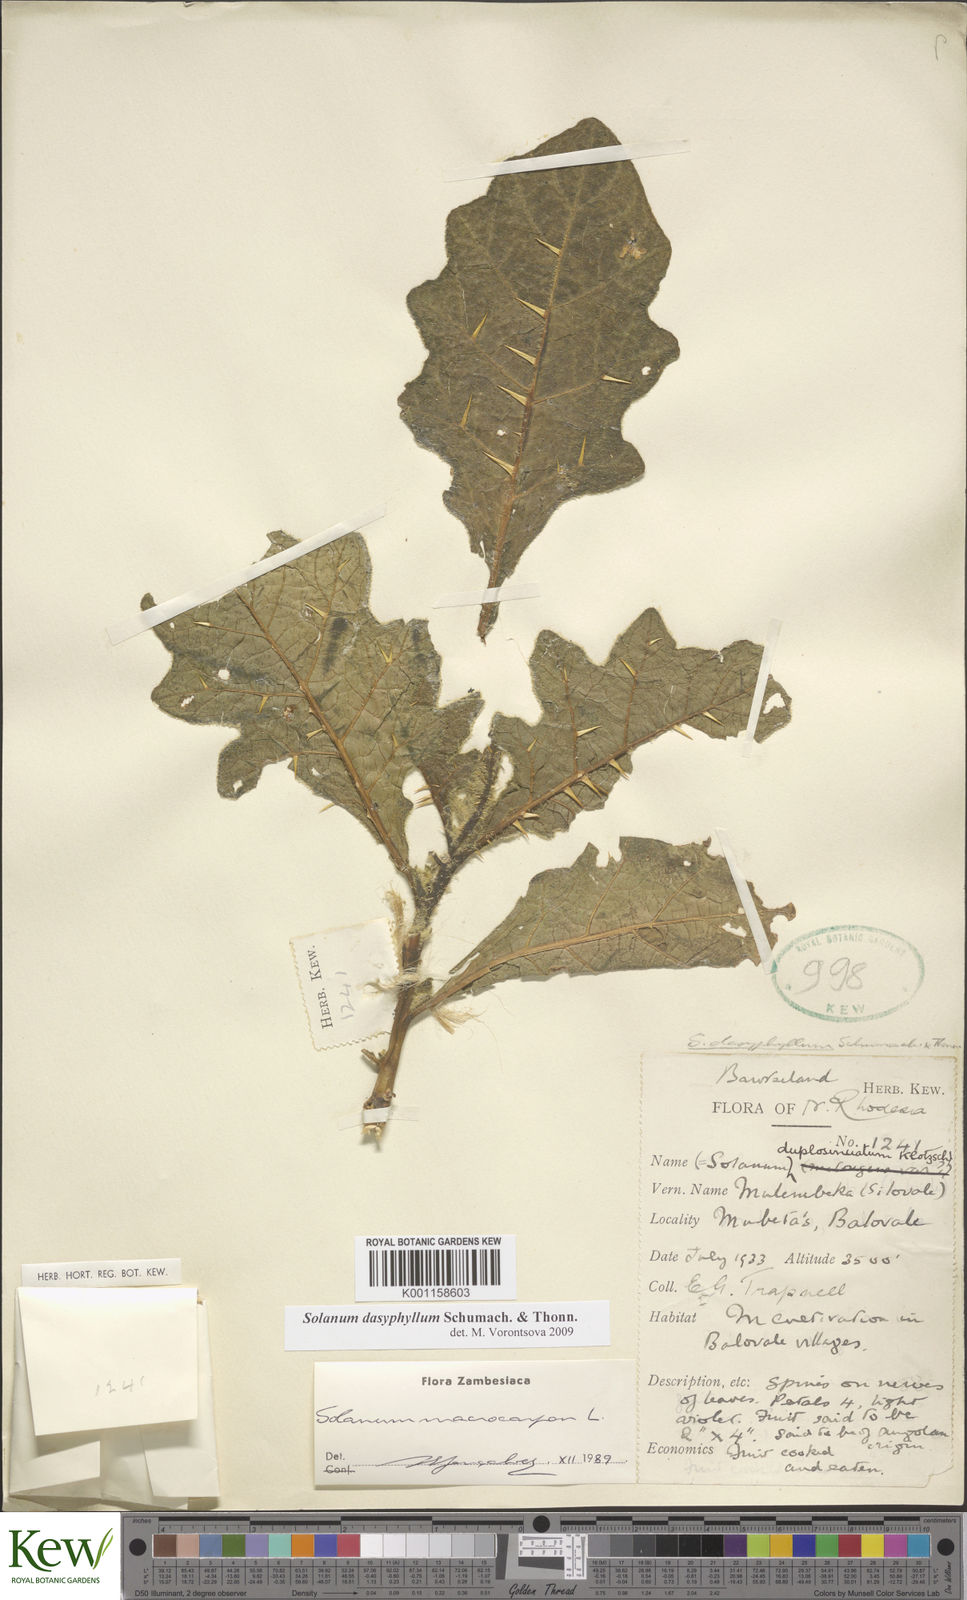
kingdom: Plantae
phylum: Tracheophyta
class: Magnoliopsida
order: Solanales
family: Solanaceae
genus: Solanum
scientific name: Solanum dasyphyllum
